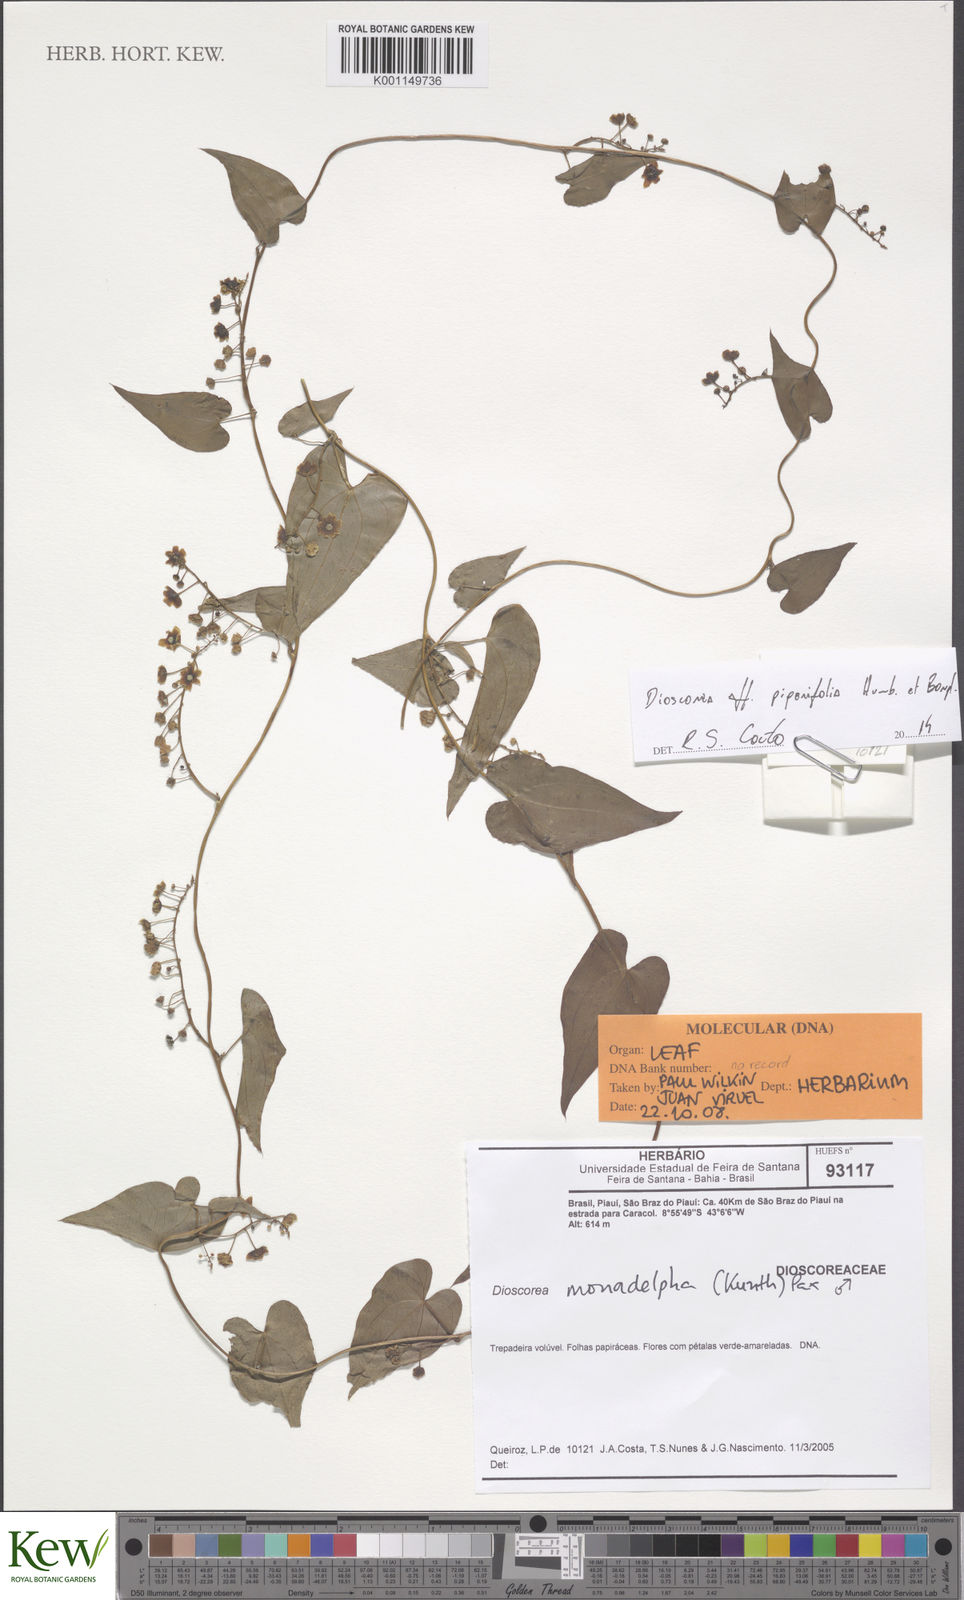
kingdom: Plantae
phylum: Tracheophyta
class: Liliopsida
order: Dioscoreales
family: Dioscoreaceae
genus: Dioscorea
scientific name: Dioscorea grandiflora
